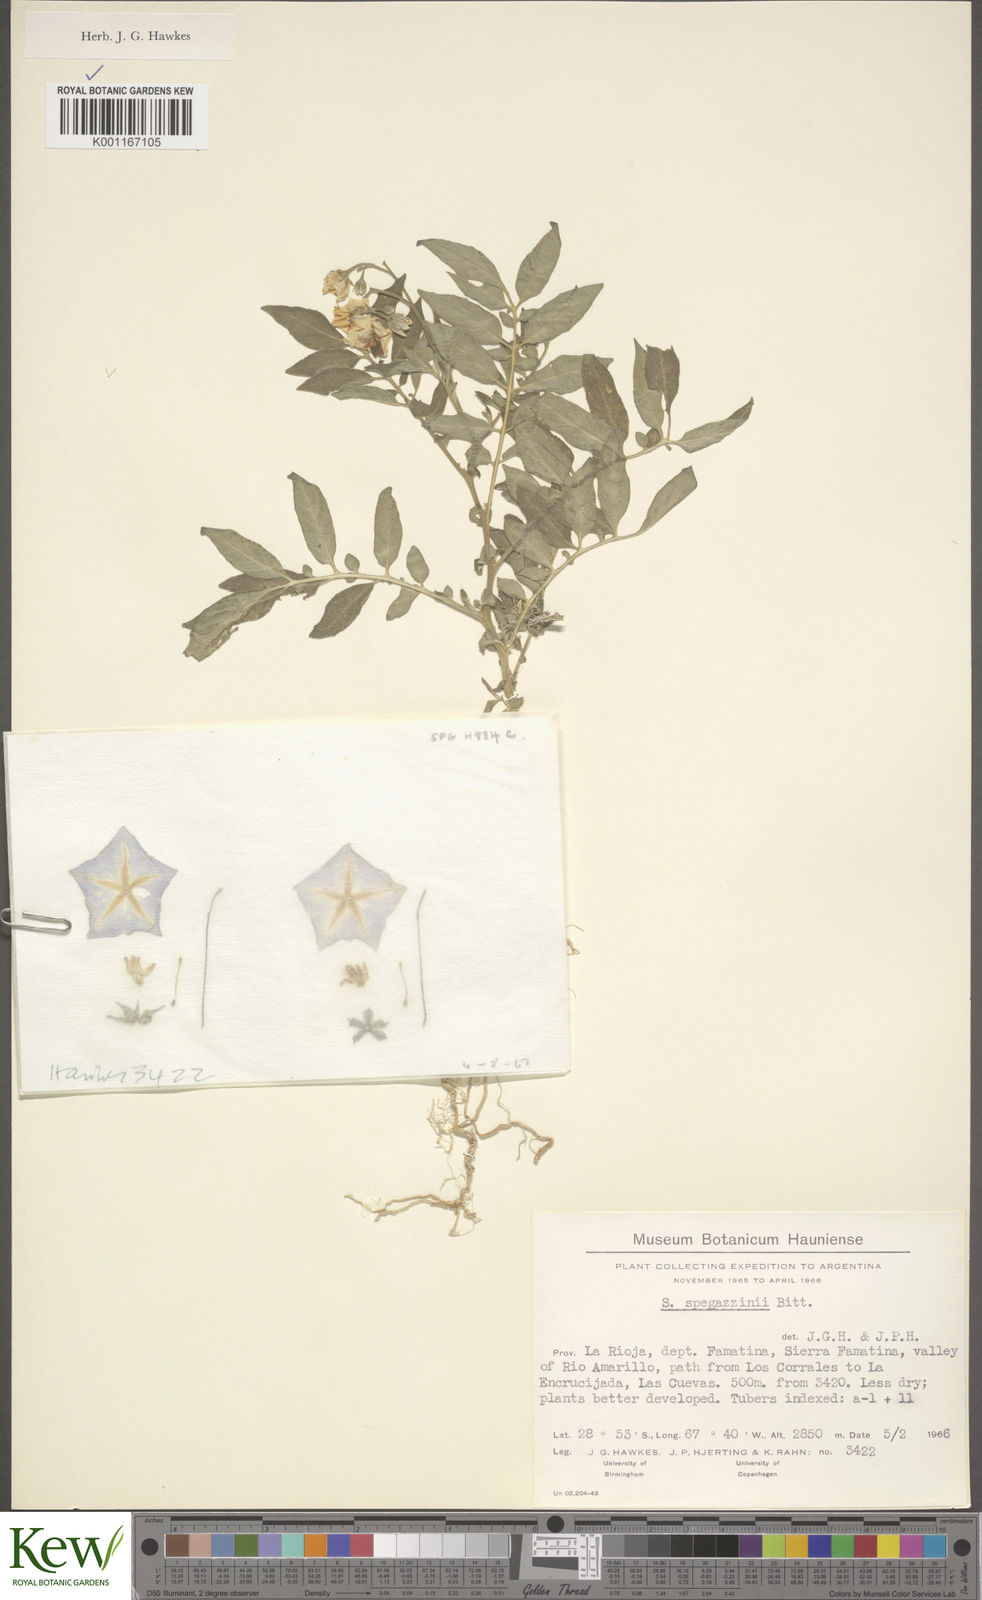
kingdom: Plantae
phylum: Tracheophyta
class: Magnoliopsida
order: Solanales
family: Solanaceae
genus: Solanum
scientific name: Solanum brevicaule
